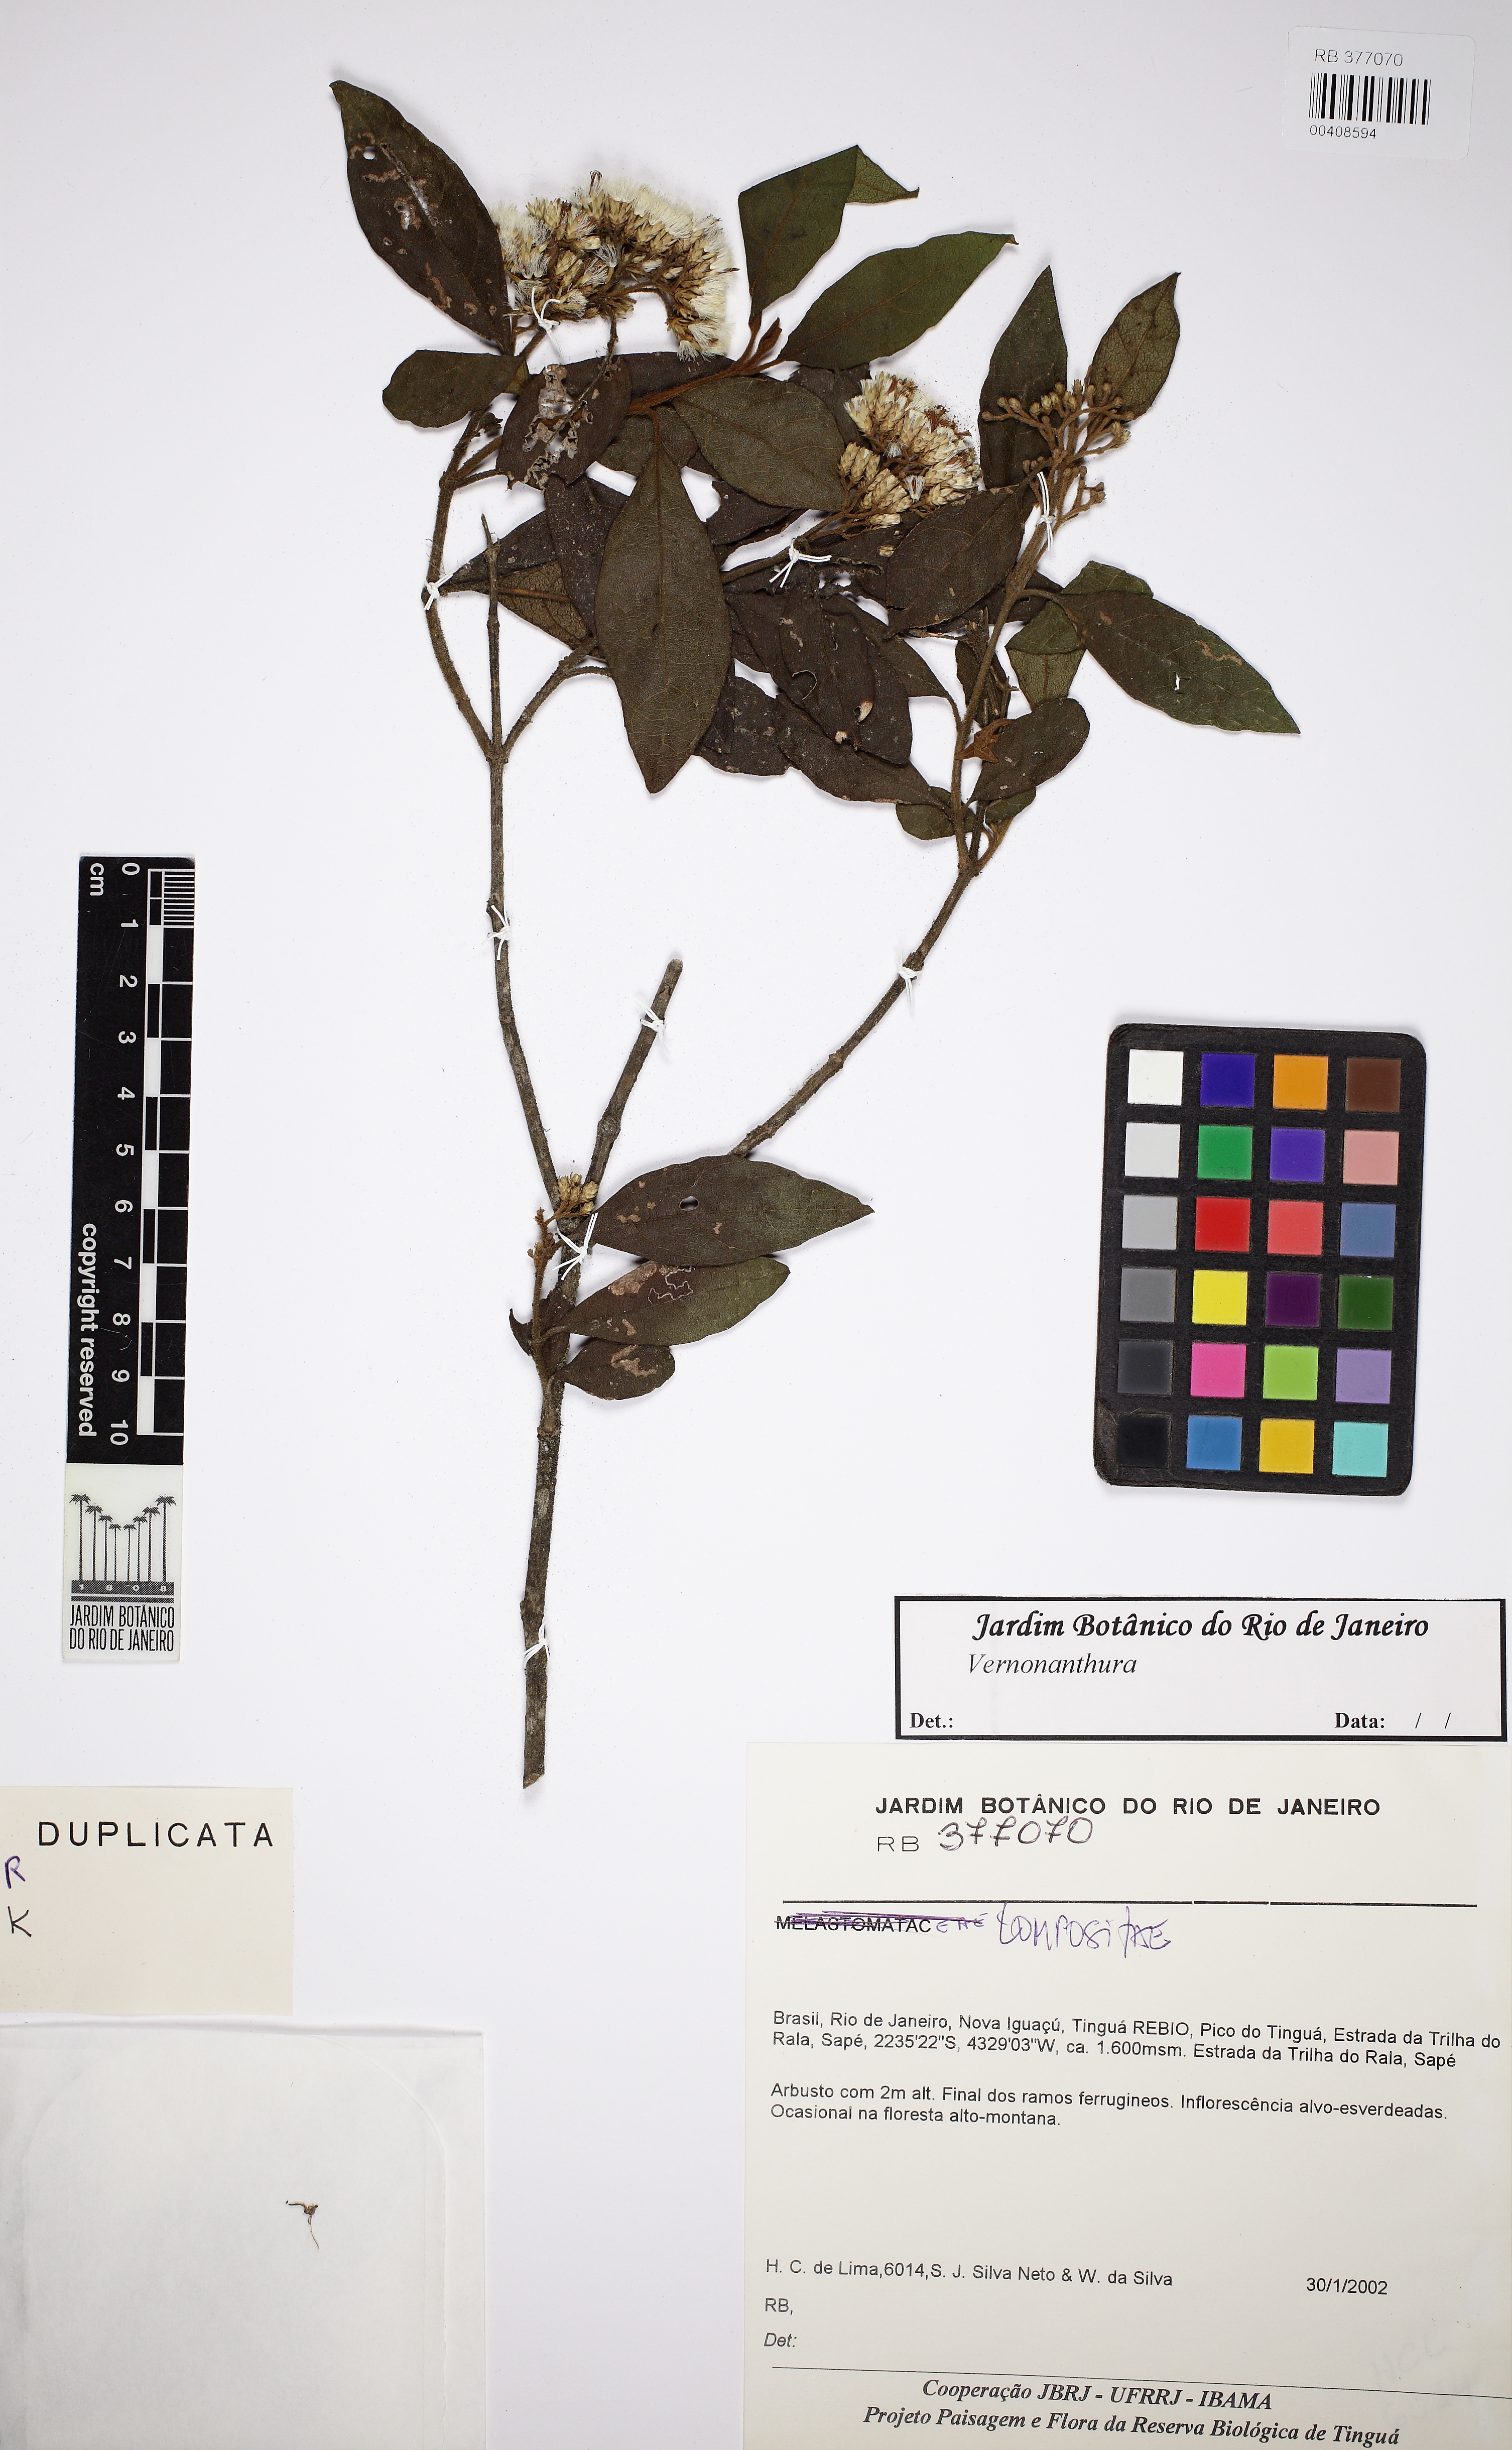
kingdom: Plantae
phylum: Tracheophyta
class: Magnoliopsida
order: Asterales
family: Asteraceae
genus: Vernonanthura
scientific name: Vernonanthura
